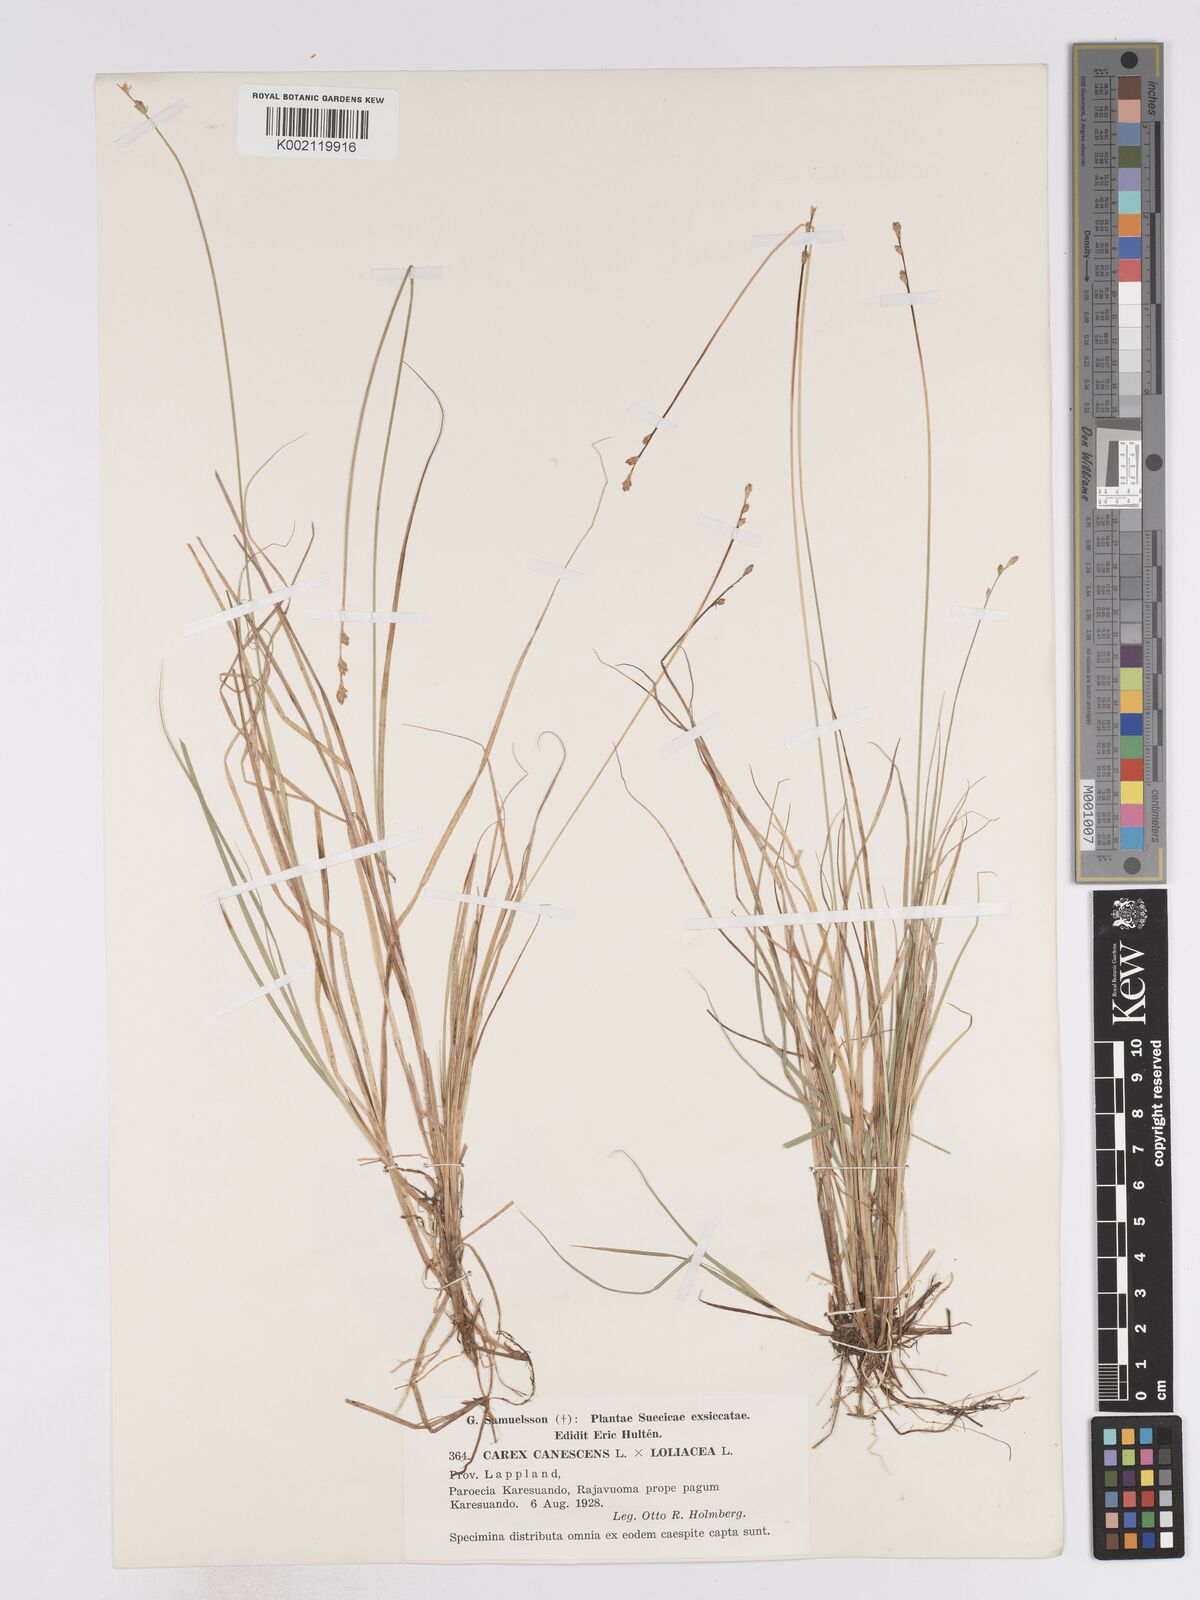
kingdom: Plantae
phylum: Tracheophyta
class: Liliopsida
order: Poales
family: Cyperaceae
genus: Carex
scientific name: Carex curta
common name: White sedge
